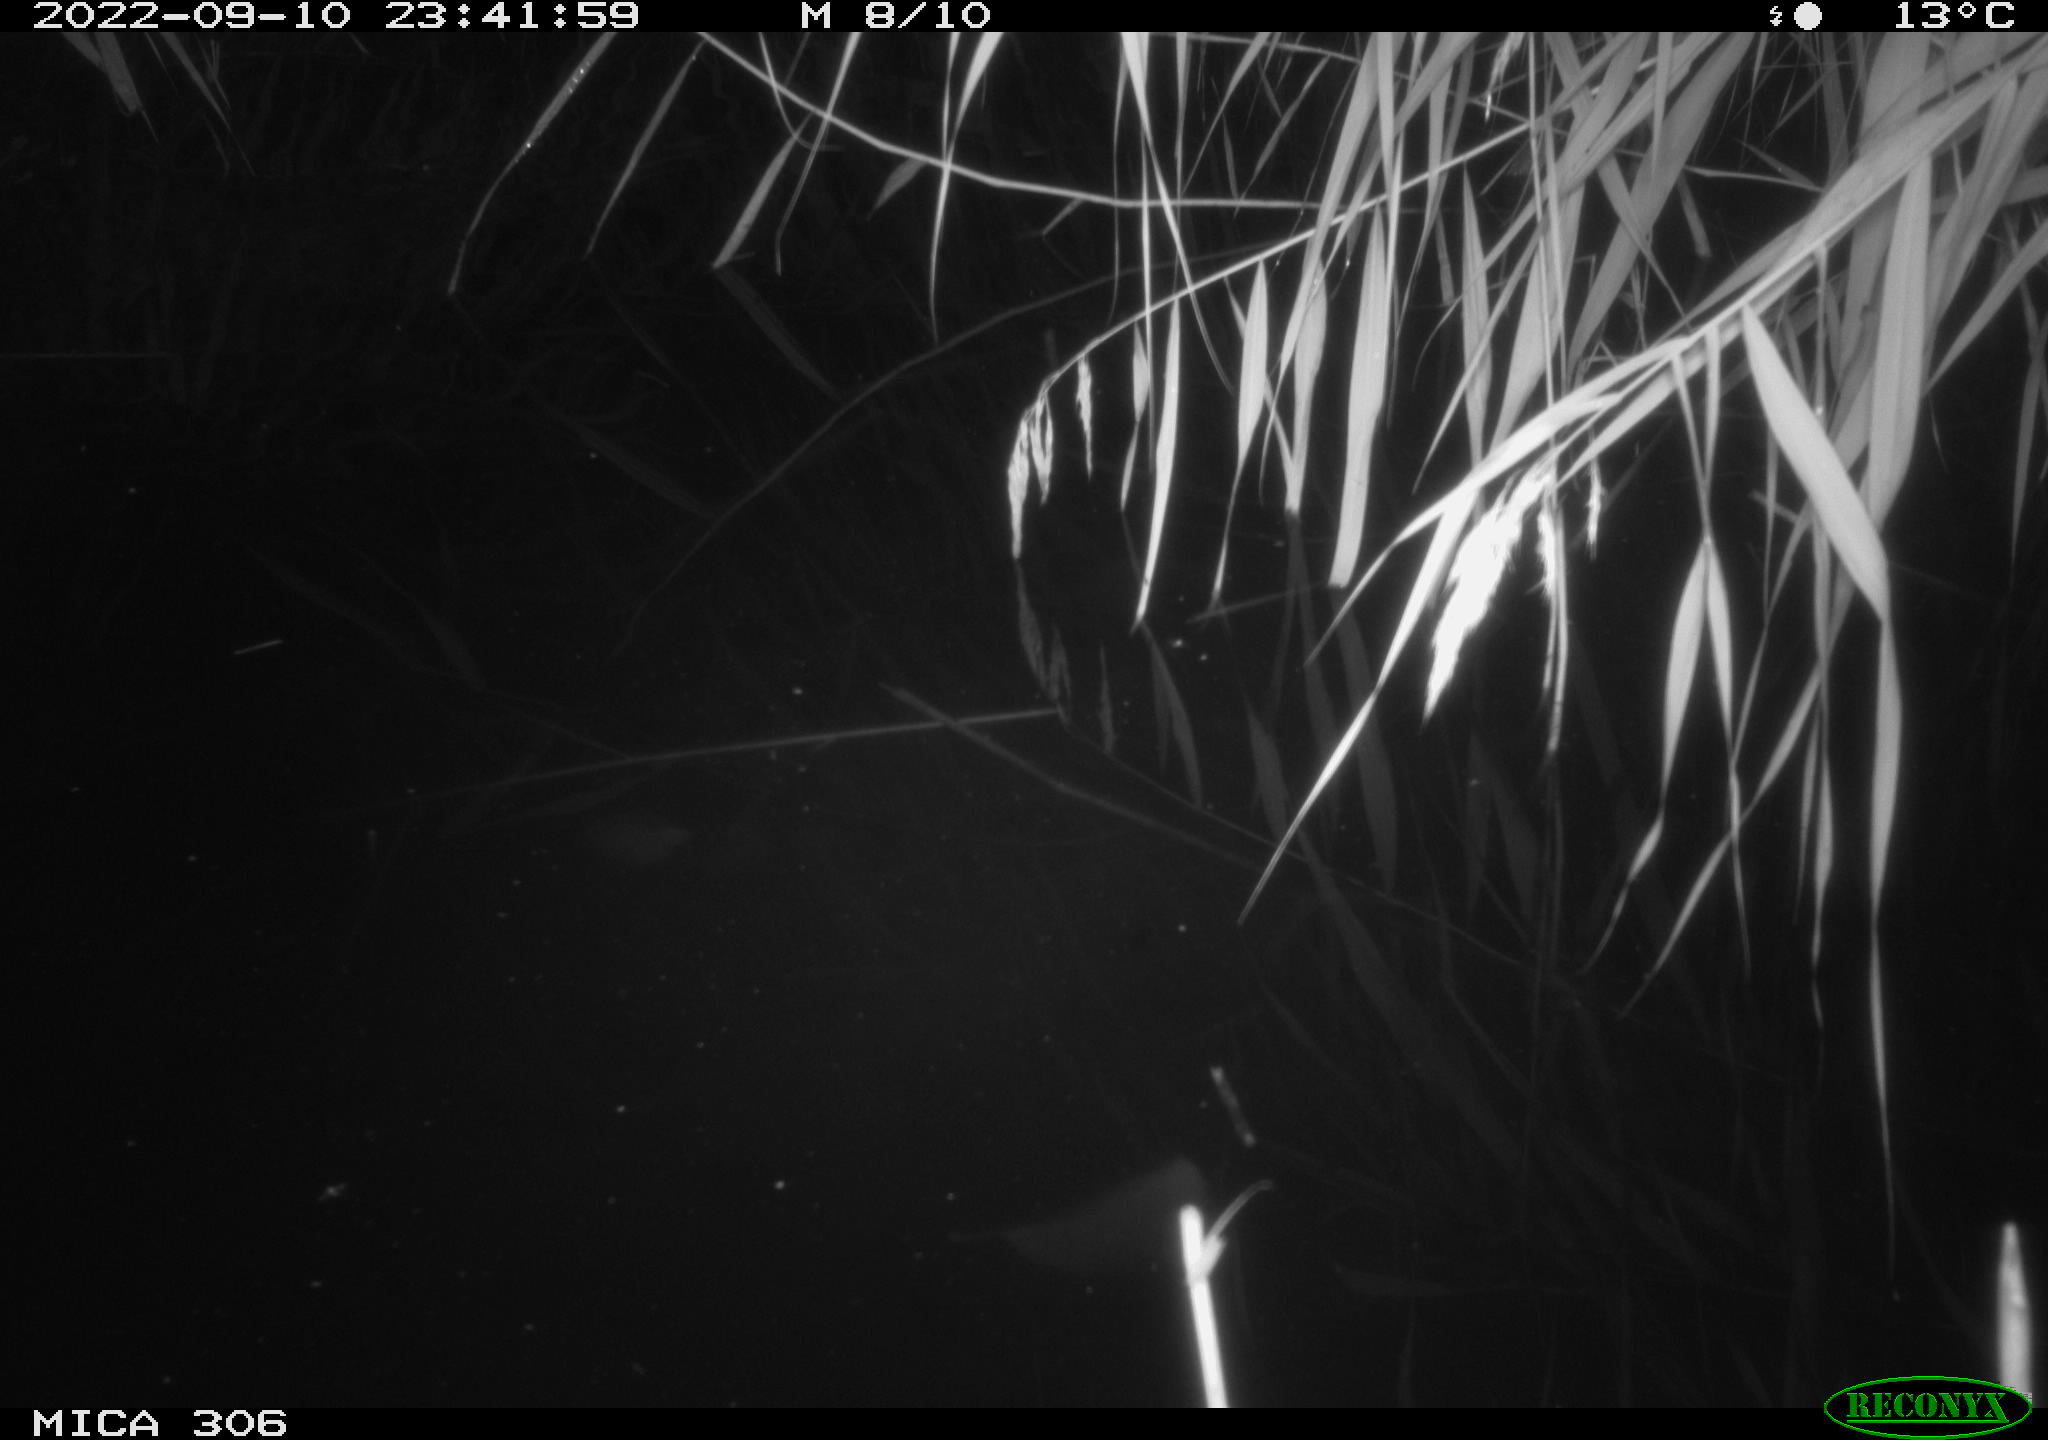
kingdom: Animalia
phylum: Chordata
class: Mammalia
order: Rodentia
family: Muridae
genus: Rattus
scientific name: Rattus norvegicus
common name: Brown rat
